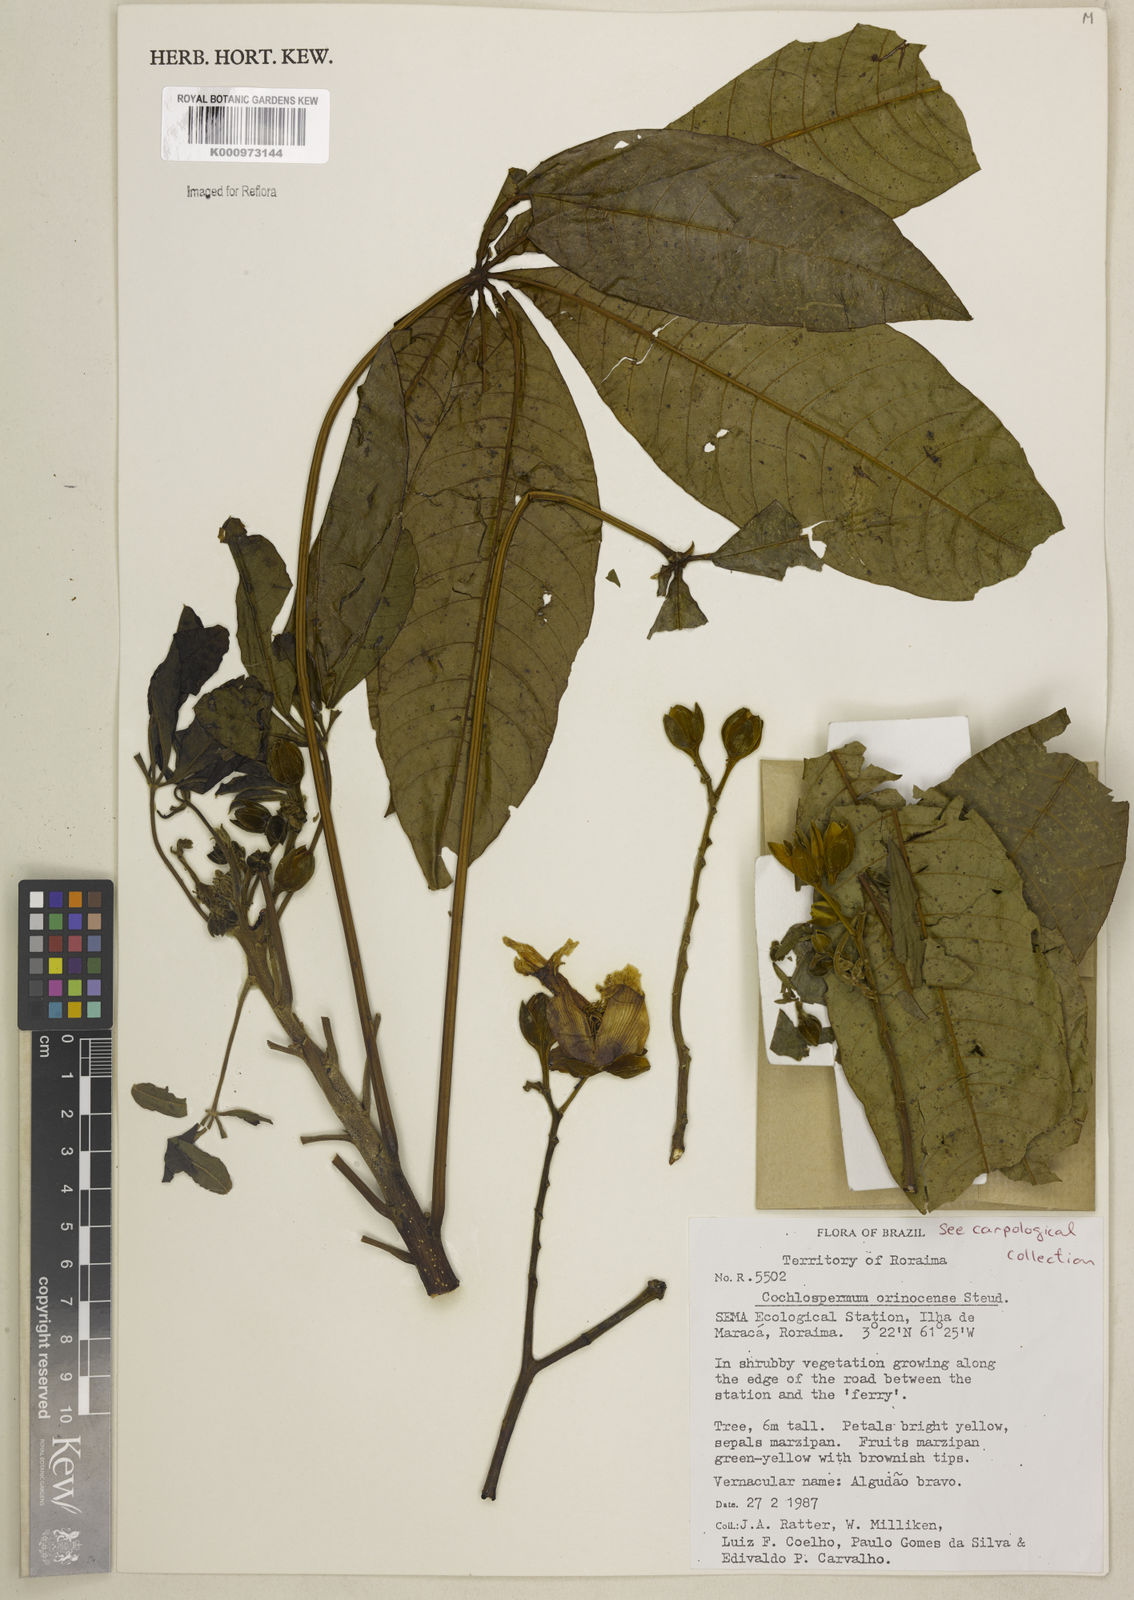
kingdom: Plantae
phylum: Tracheophyta
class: Magnoliopsida
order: Malvales
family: Cochlospermaceae
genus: Cochlospermum
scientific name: Cochlospermum orinocense
